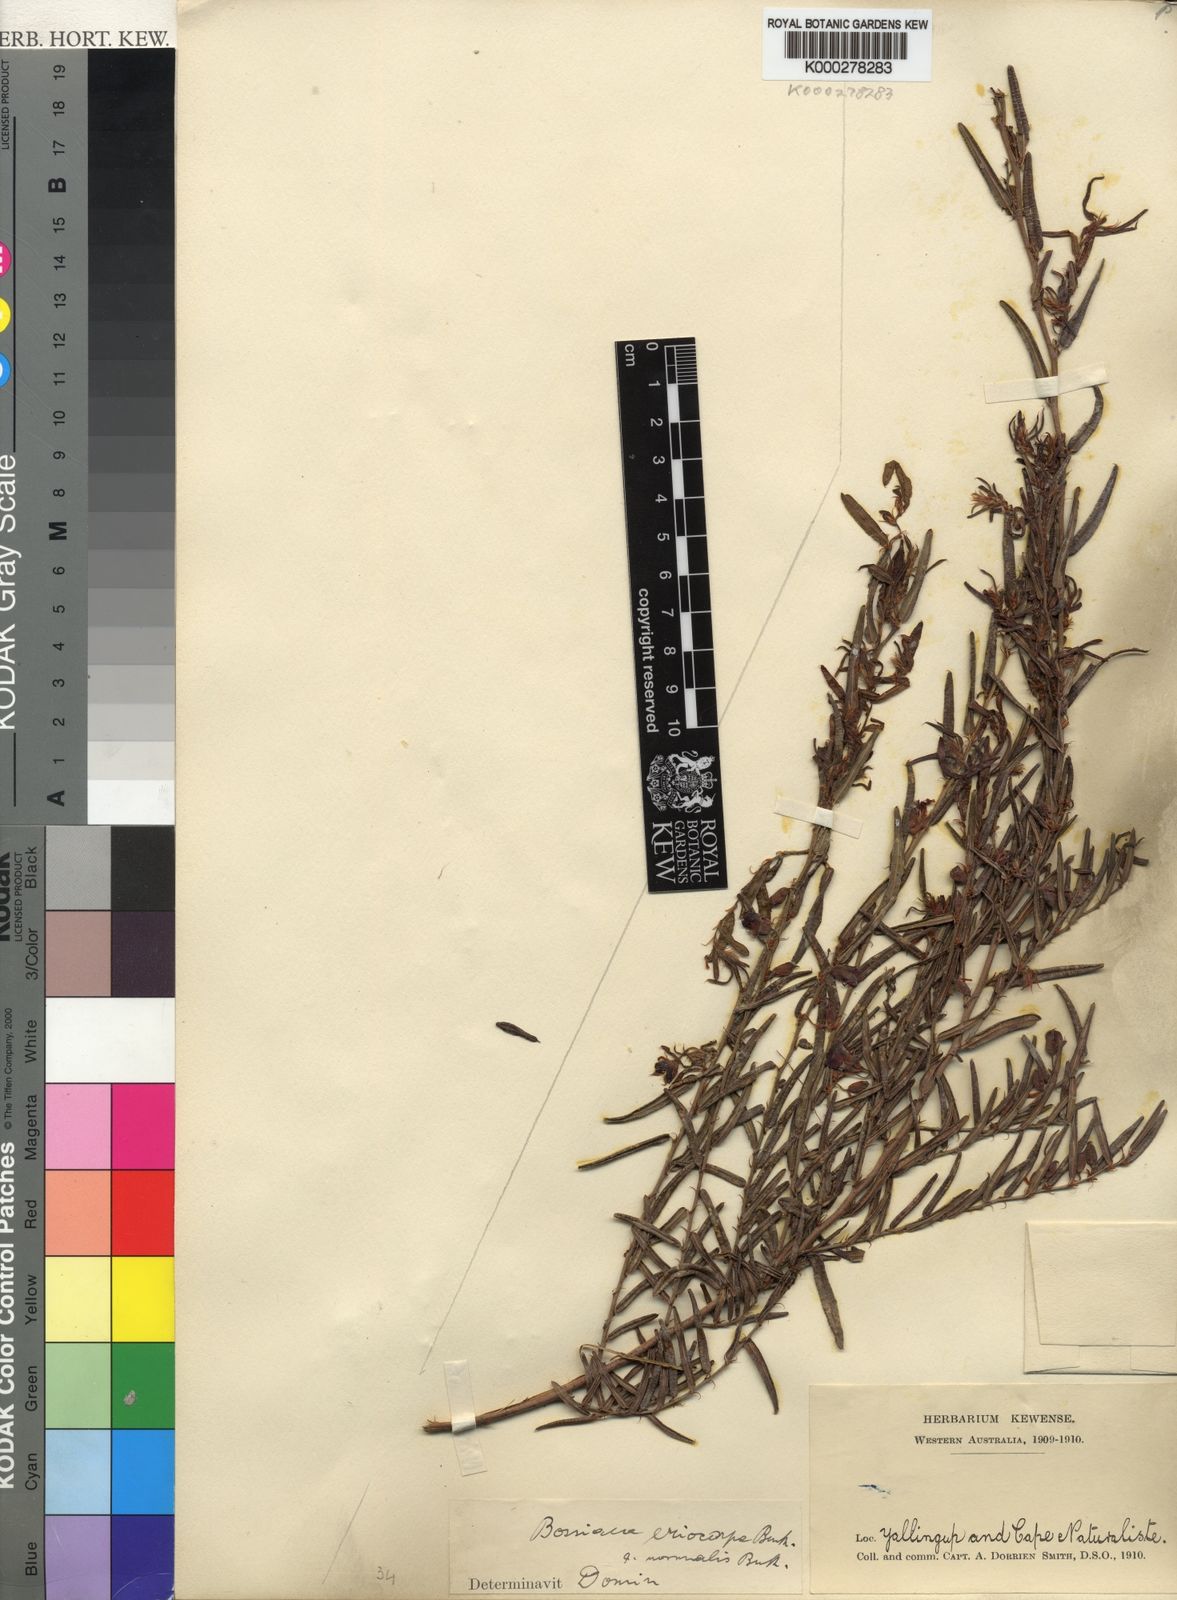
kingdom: Plantae
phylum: Tracheophyta
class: Magnoliopsida
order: Fabales
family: Fabaceae
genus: Bossiaea
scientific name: Bossiaea eriocarpa
